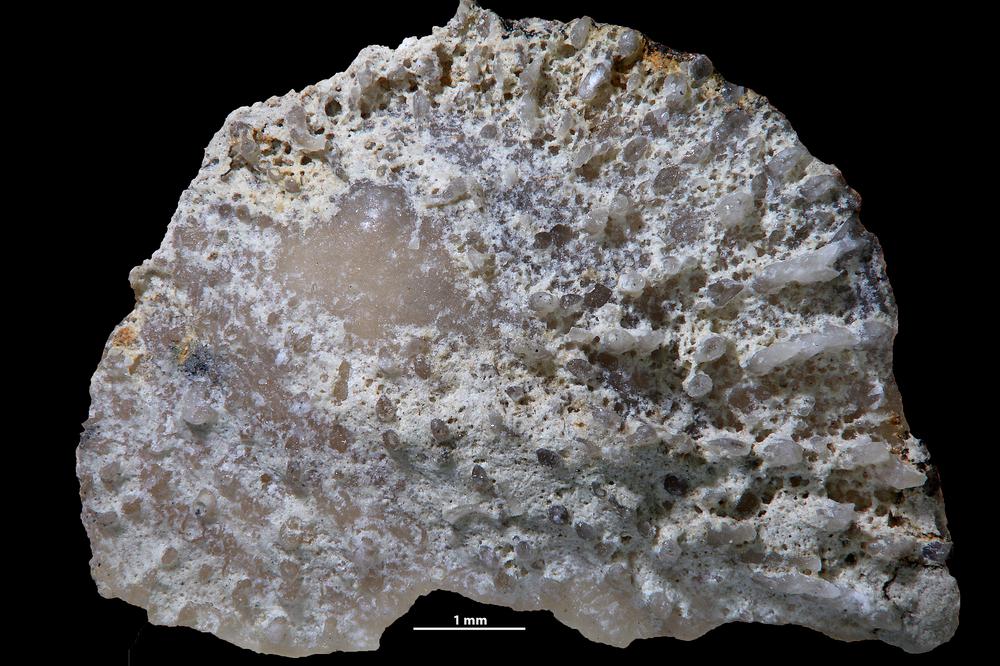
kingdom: Animalia
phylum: Brachiopoda
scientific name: Brachiopoda
